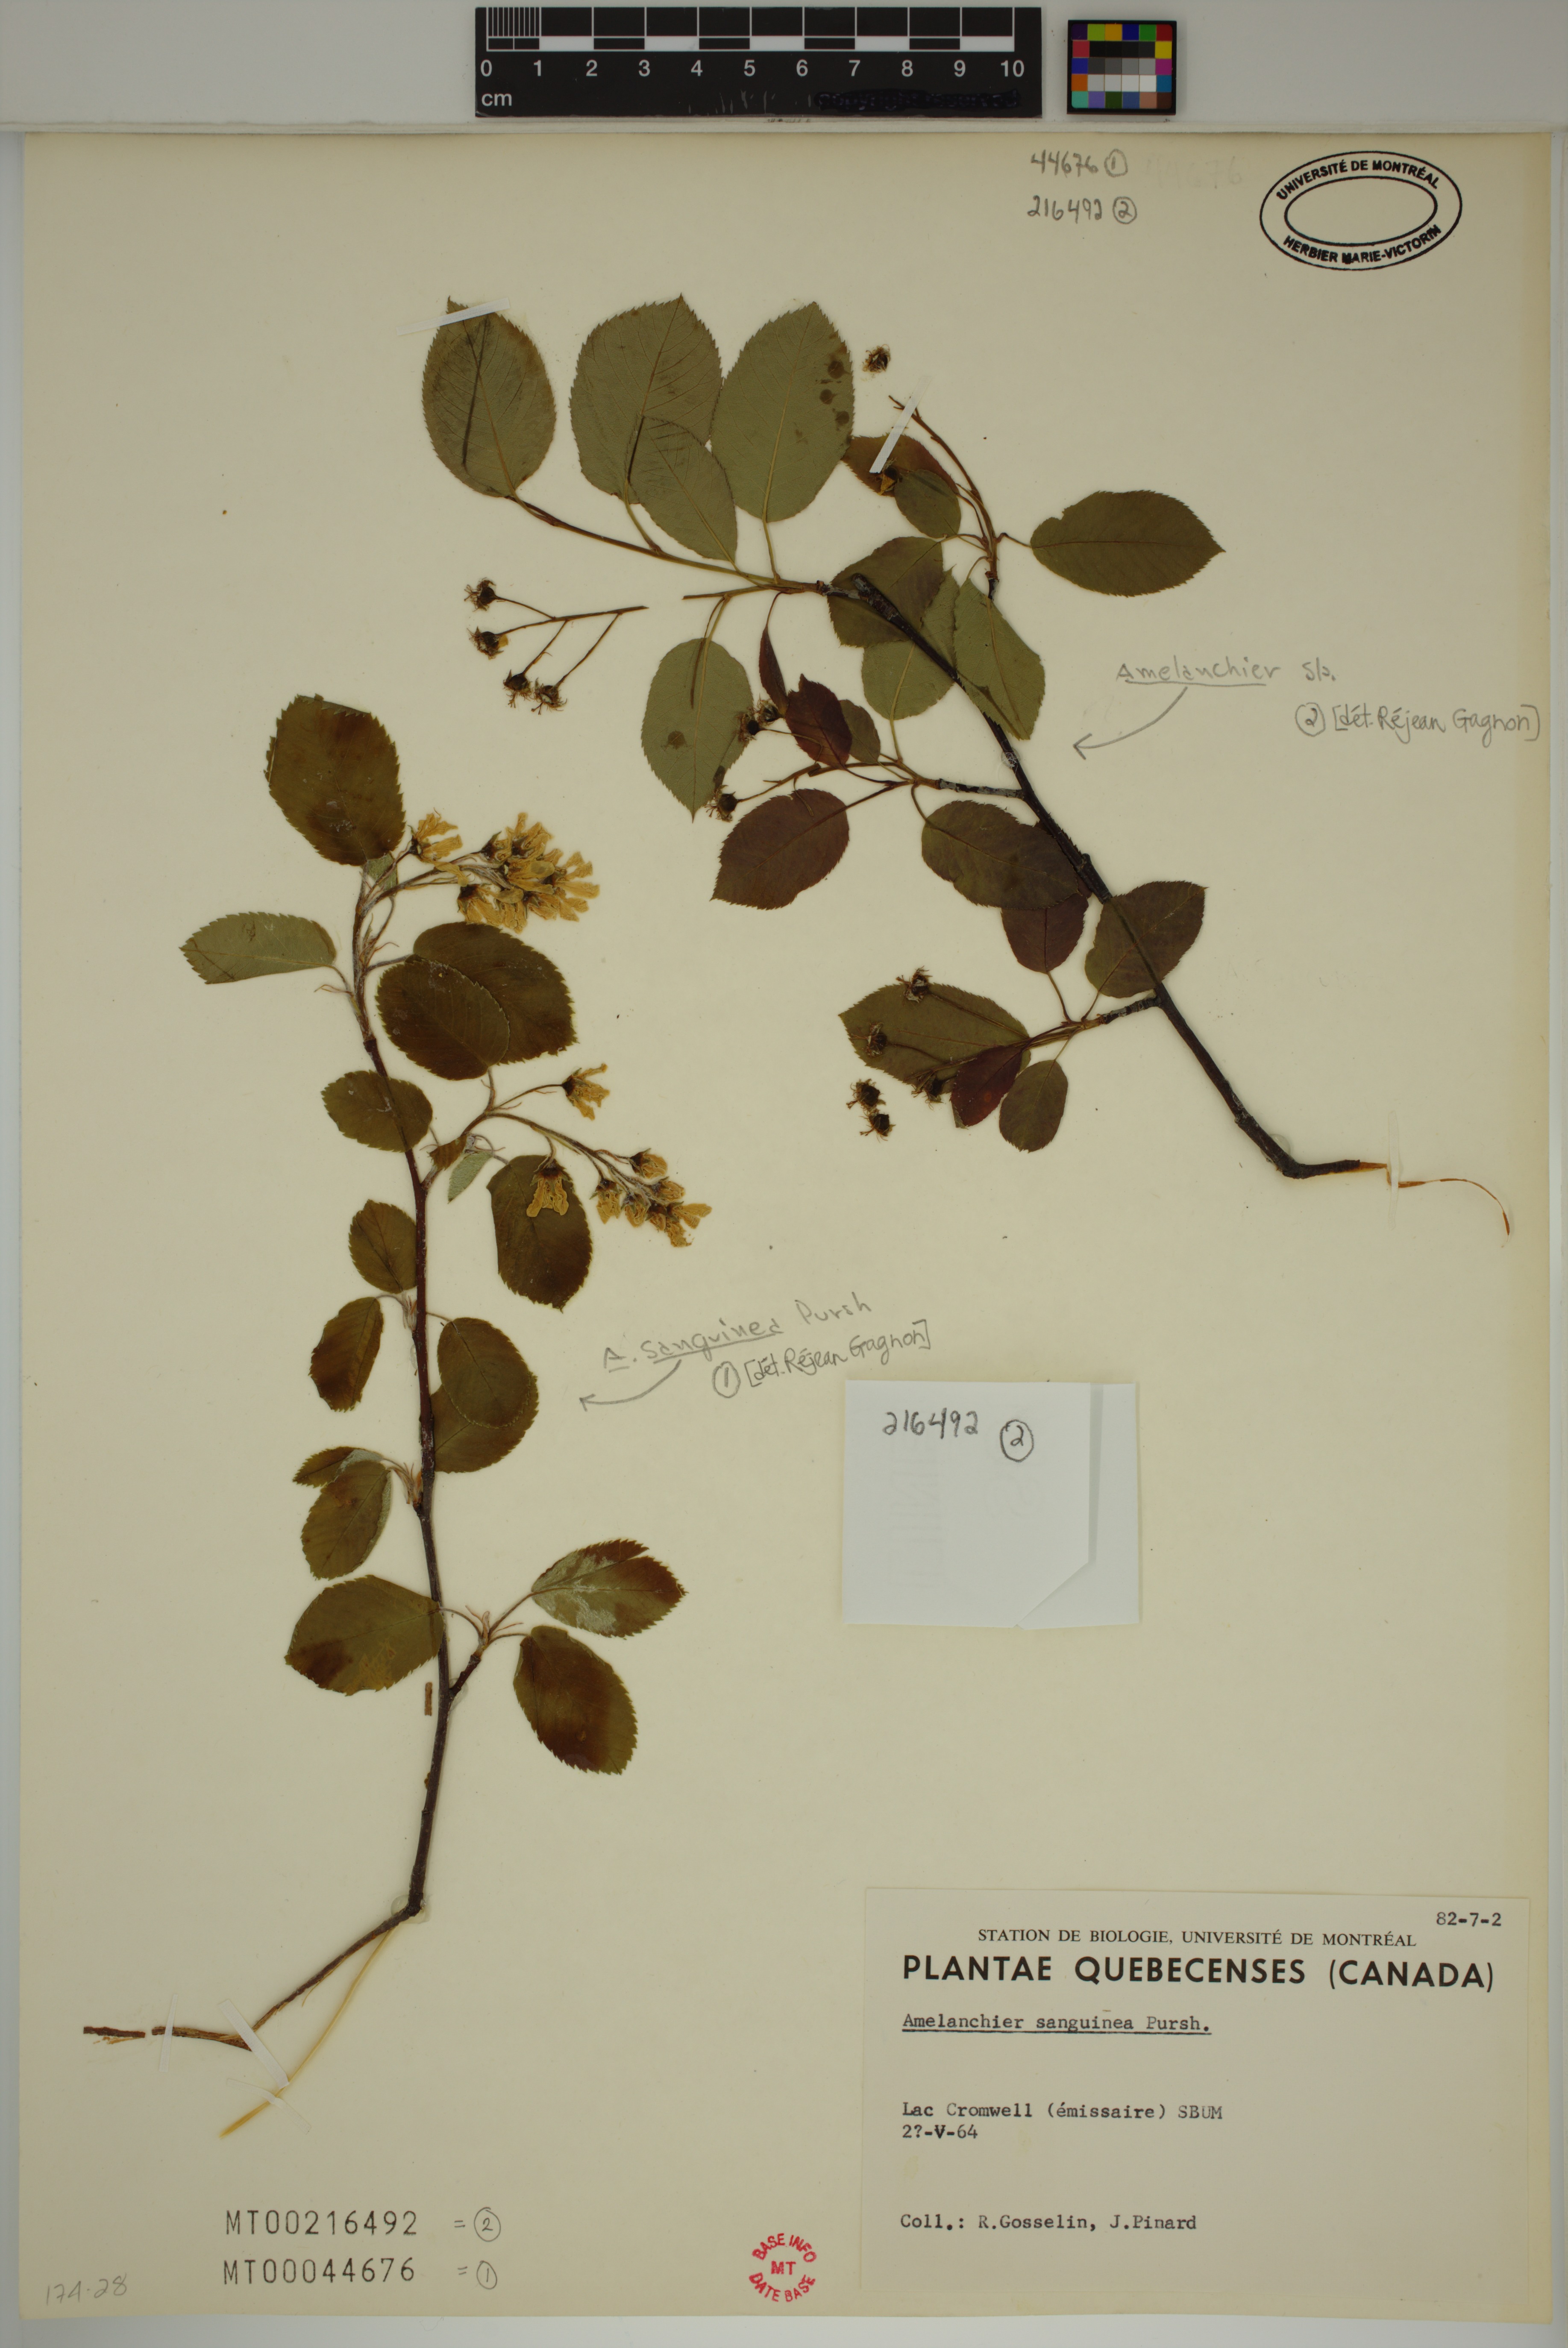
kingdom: Plantae
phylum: Tracheophyta
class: Magnoliopsida
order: Rosales
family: Rosaceae
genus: Amelanchier
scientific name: Amelanchier sanguinea
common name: Huron serviceberry
